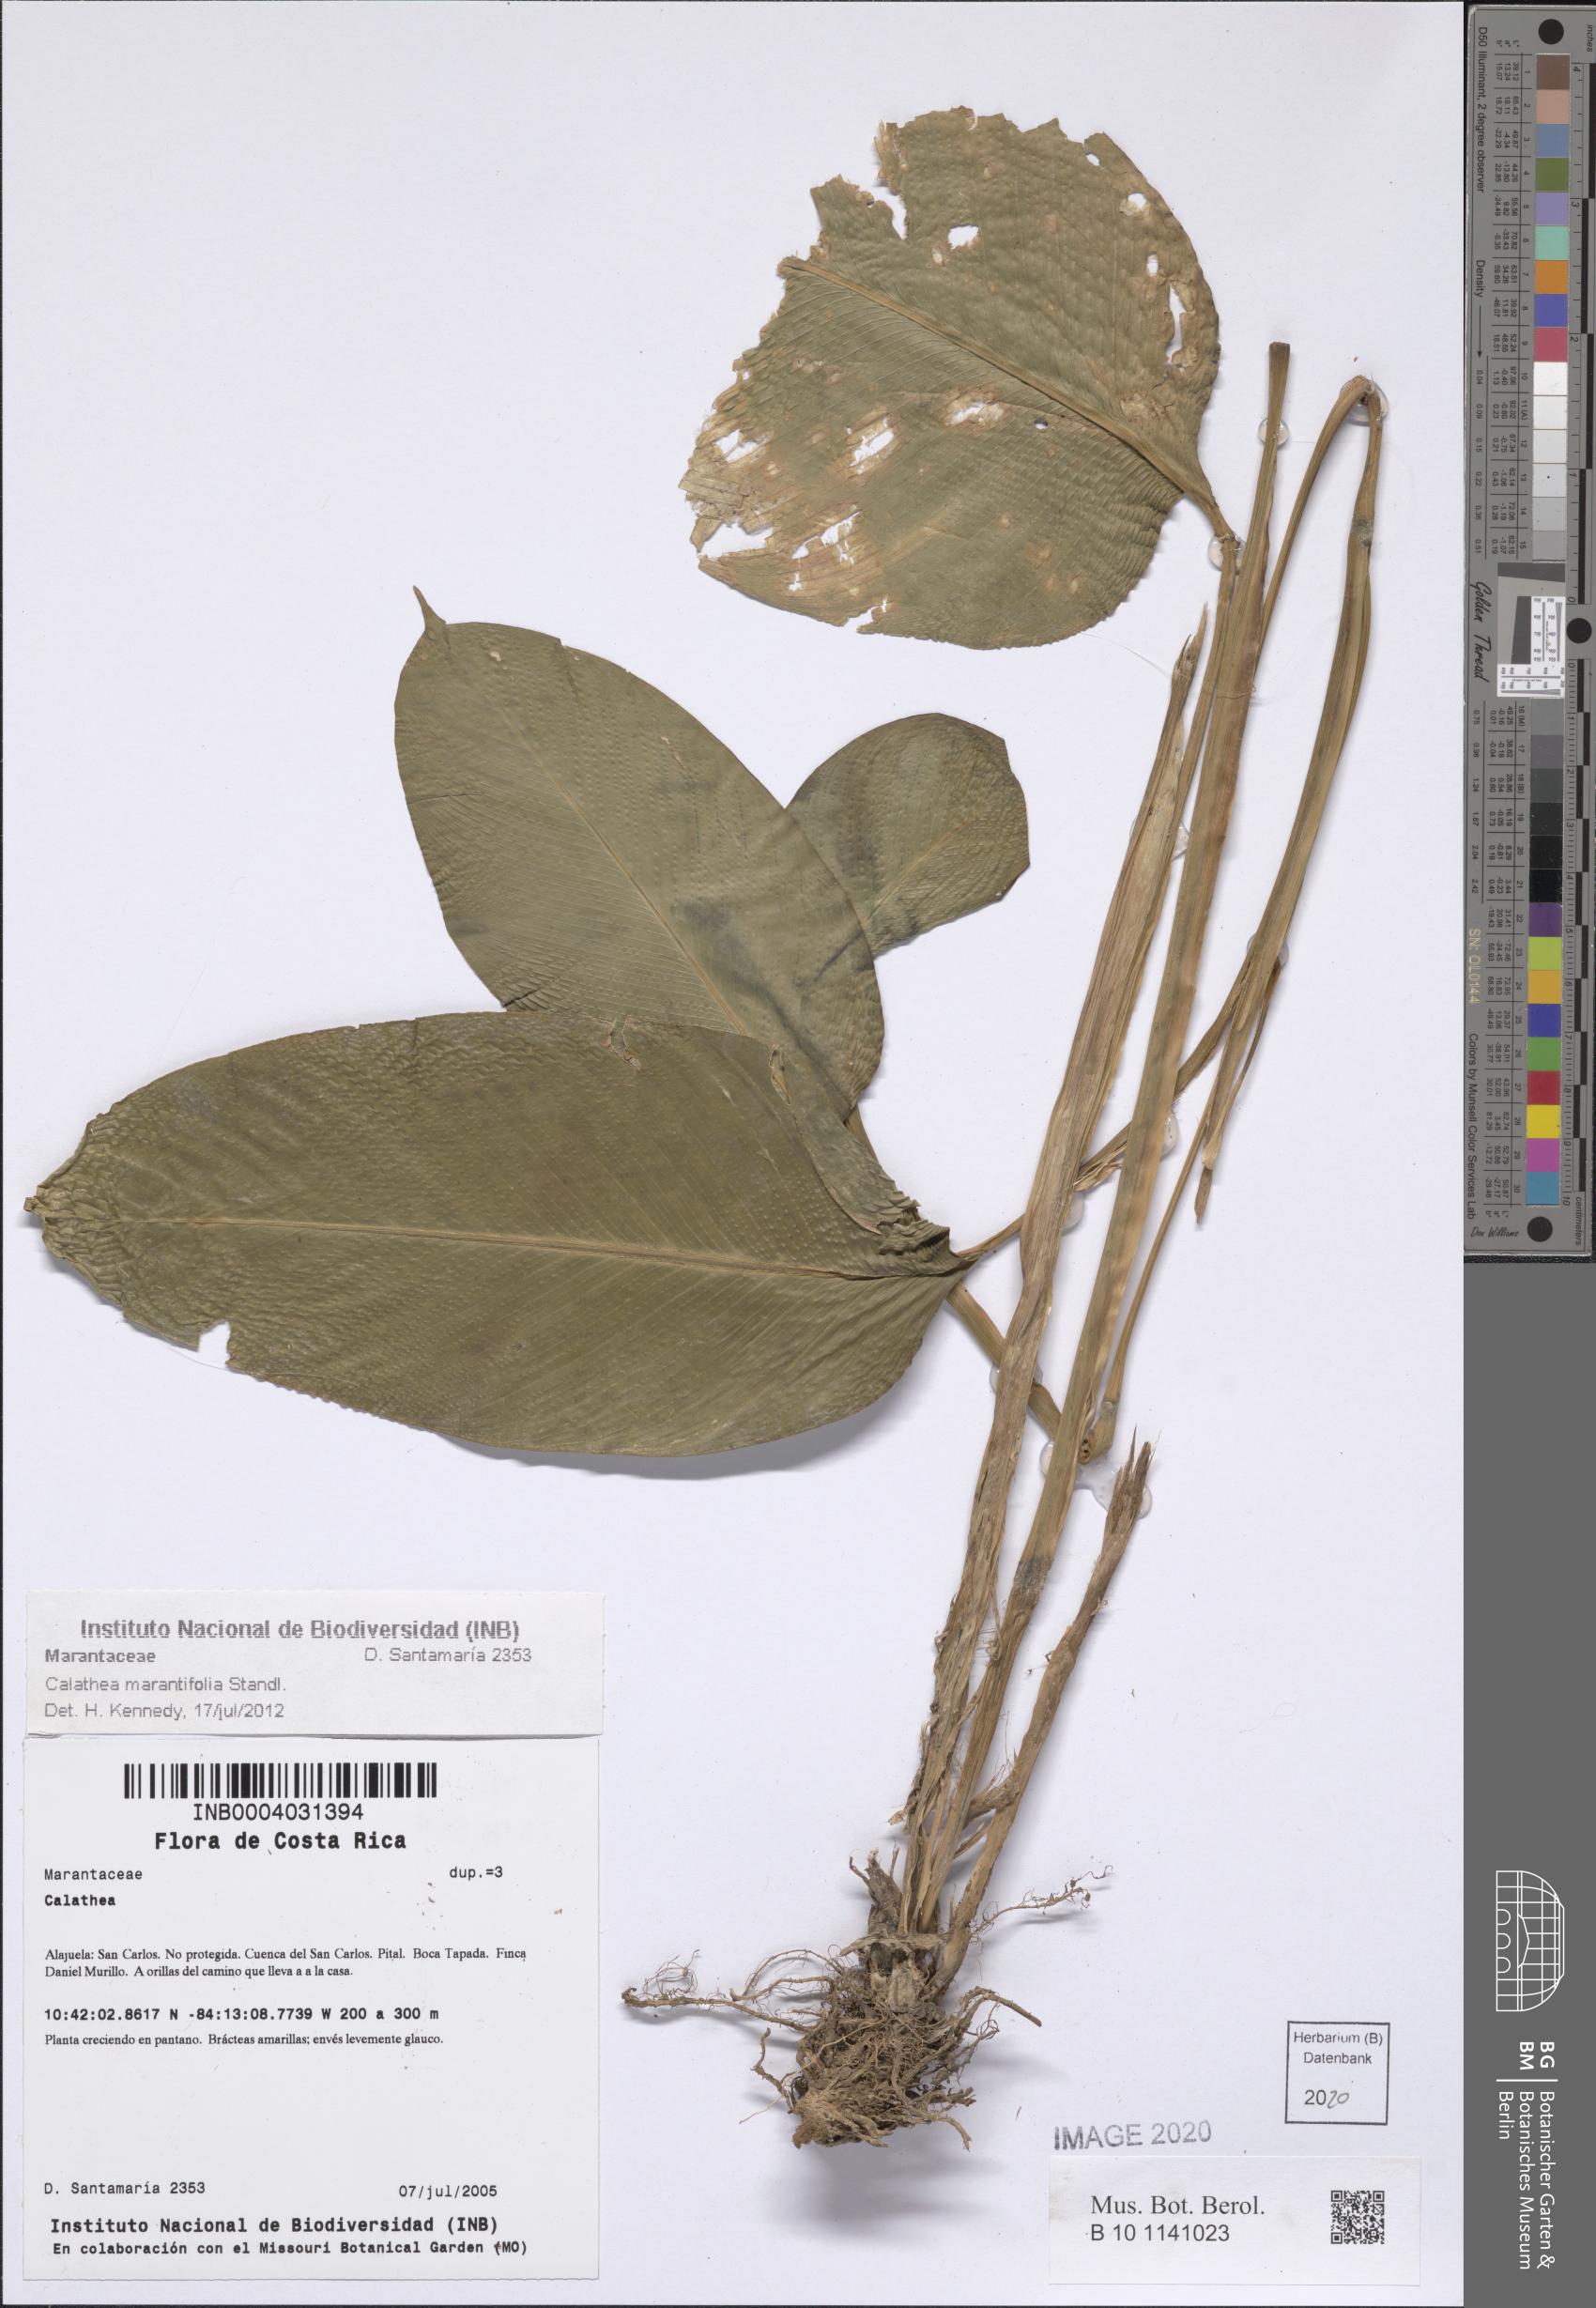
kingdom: Plantae
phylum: Tracheophyta
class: Liliopsida
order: Zingiberales
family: Marantaceae
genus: Goeppertia
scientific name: Goeppertia marantifolia
